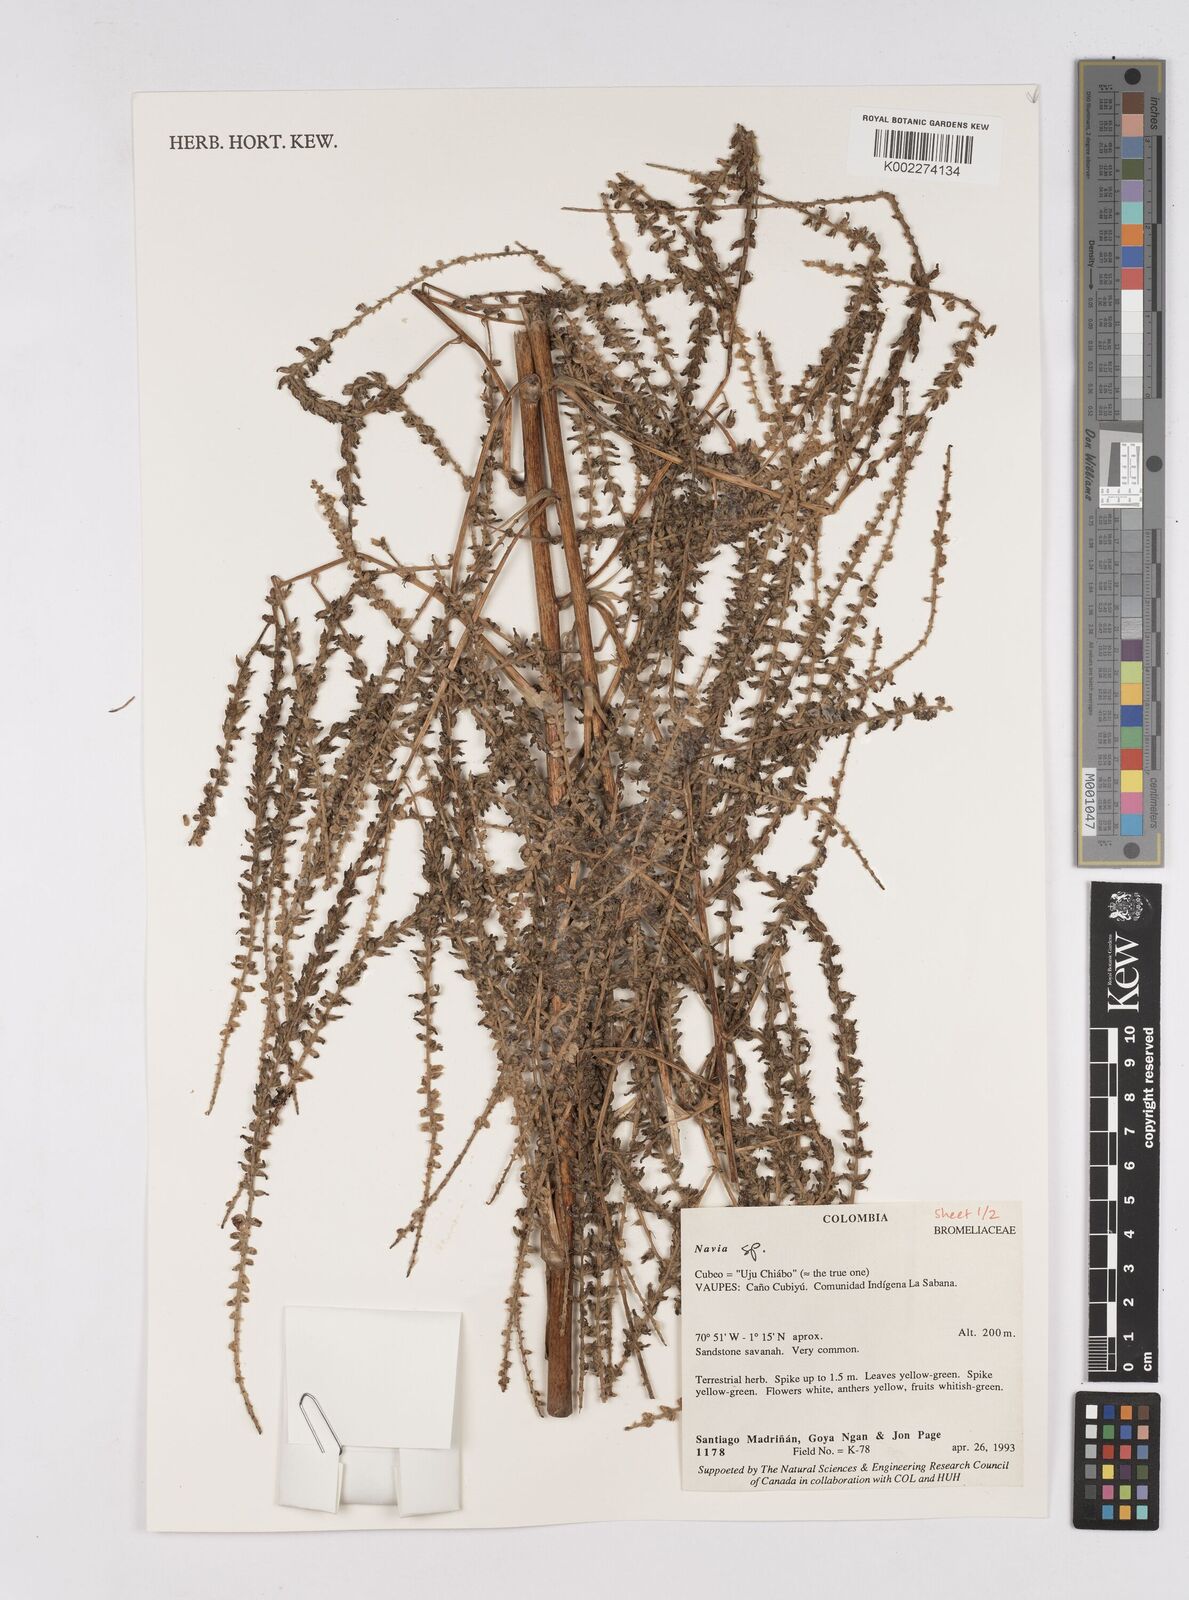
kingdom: Plantae
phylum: Tracheophyta
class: Liliopsida
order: Poales
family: Bromeliaceae
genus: Navia
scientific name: Navia
